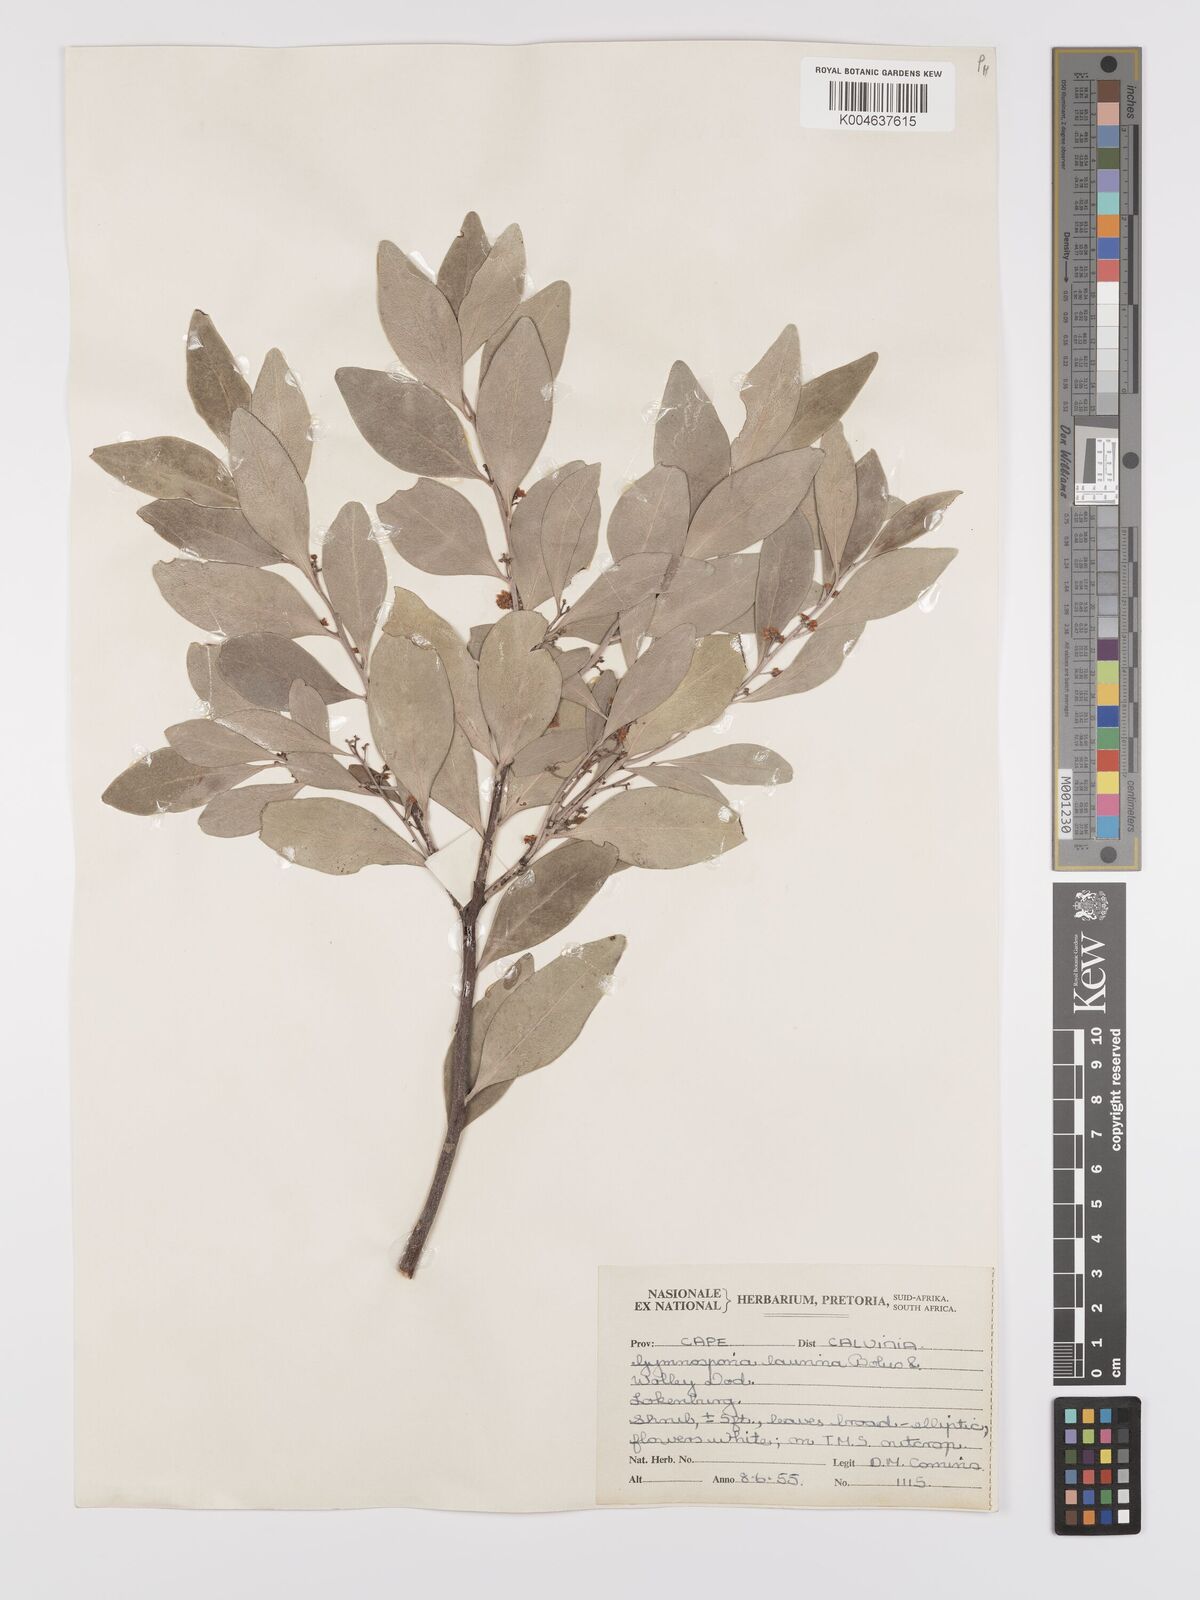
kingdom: Plantae
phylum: Tracheophyta
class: Magnoliopsida
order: Celastrales
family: Celastraceae
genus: Monteverdia
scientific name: Monteverdia laurina
